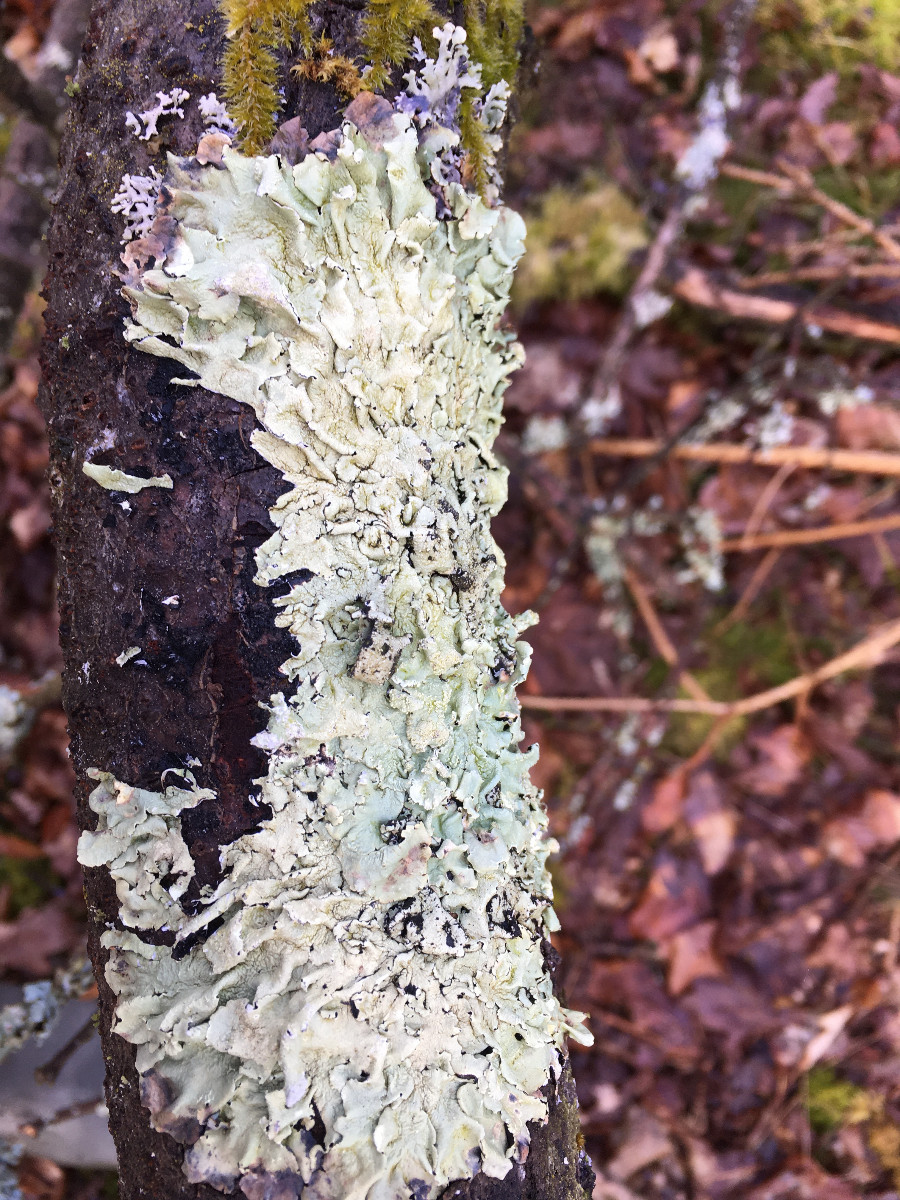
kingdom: Fungi
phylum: Ascomycota
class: Lecanoromycetes
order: Lecanorales
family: Parmeliaceae
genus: Flavoparmelia
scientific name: Flavoparmelia caperata
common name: gulgrøn skållav
